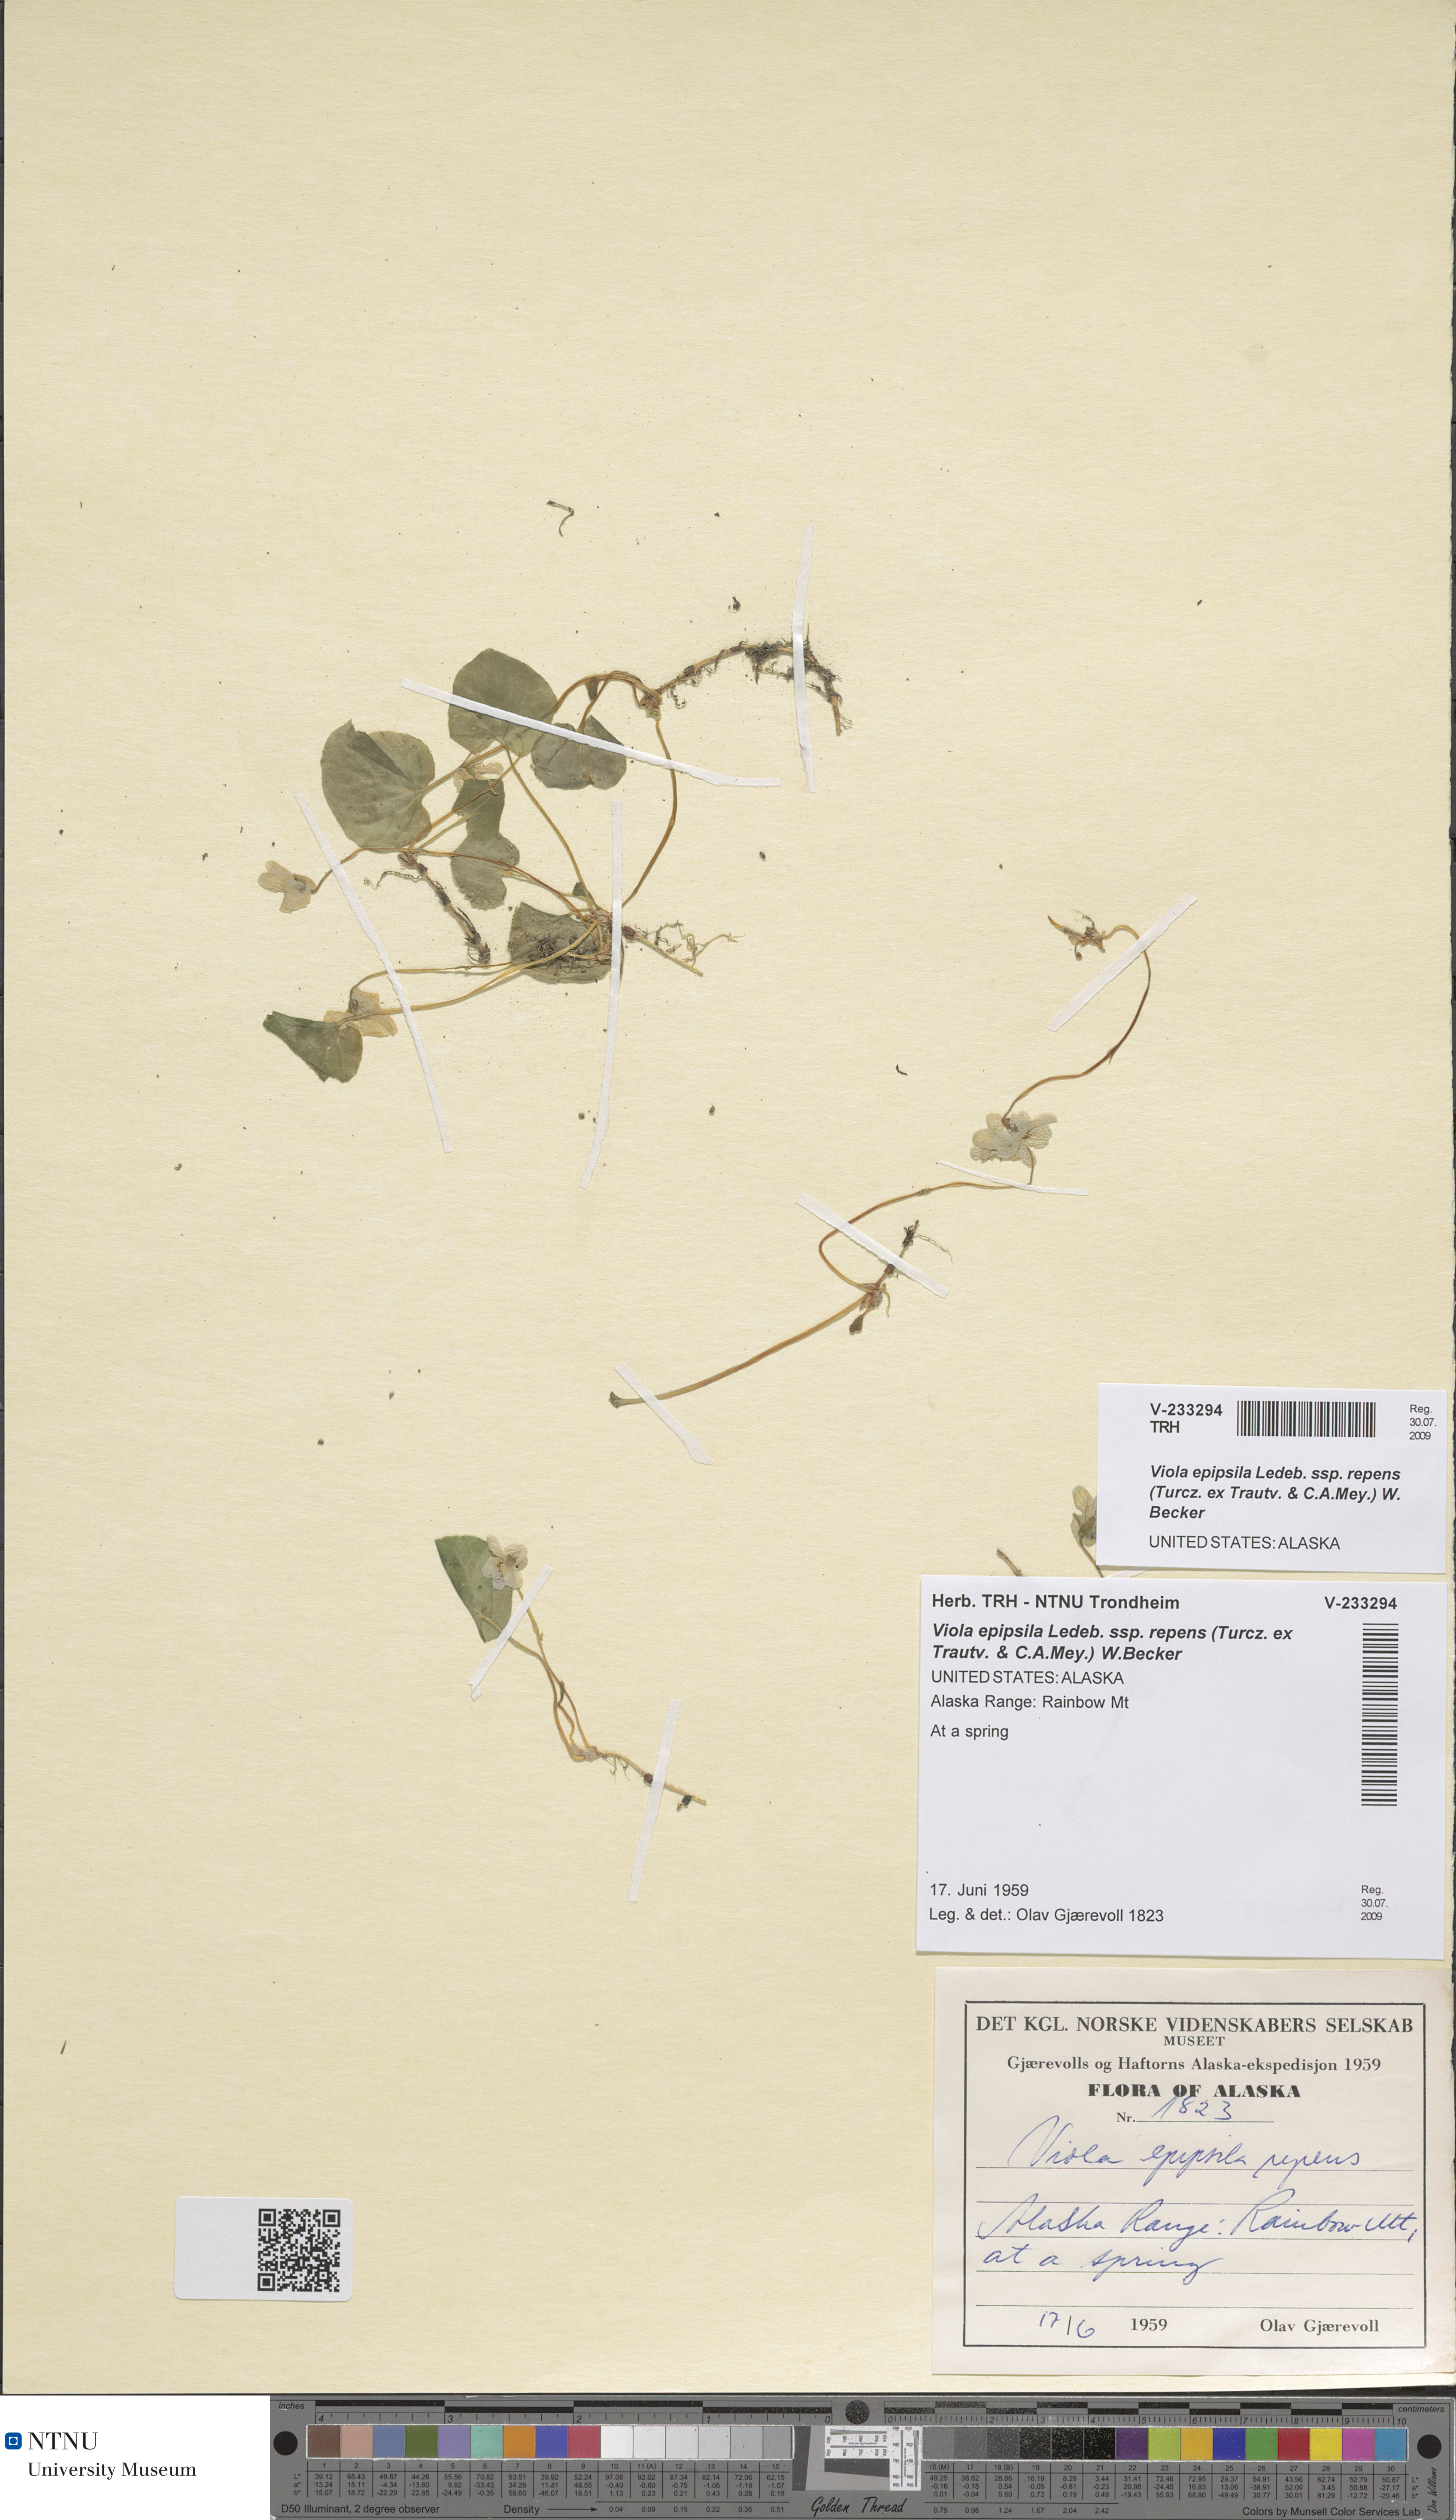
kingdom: Plantae
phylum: Tracheophyta
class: Magnoliopsida
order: Malpighiales
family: Violaceae
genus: Viola
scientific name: Viola epipsila
